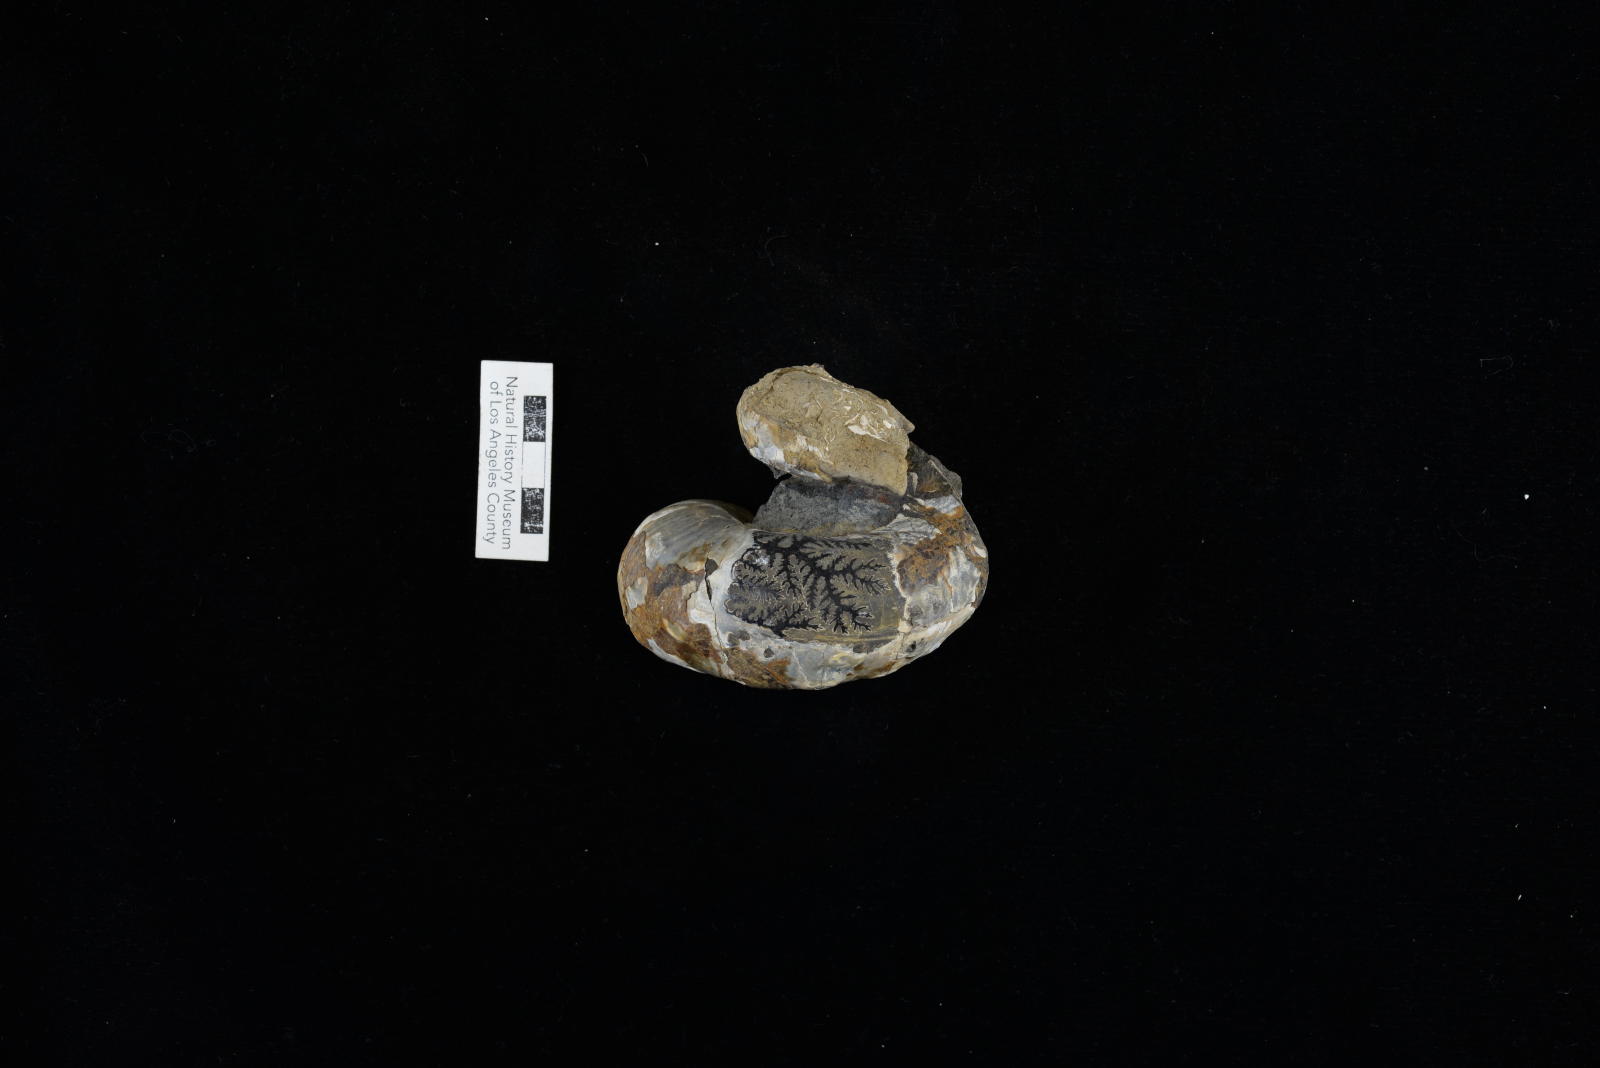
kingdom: Animalia
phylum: Mollusca
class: Cephalopoda
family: Turrilitidae
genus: Pseudhelicoceras
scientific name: Pseudhelicoceras Turrilites petersoni
